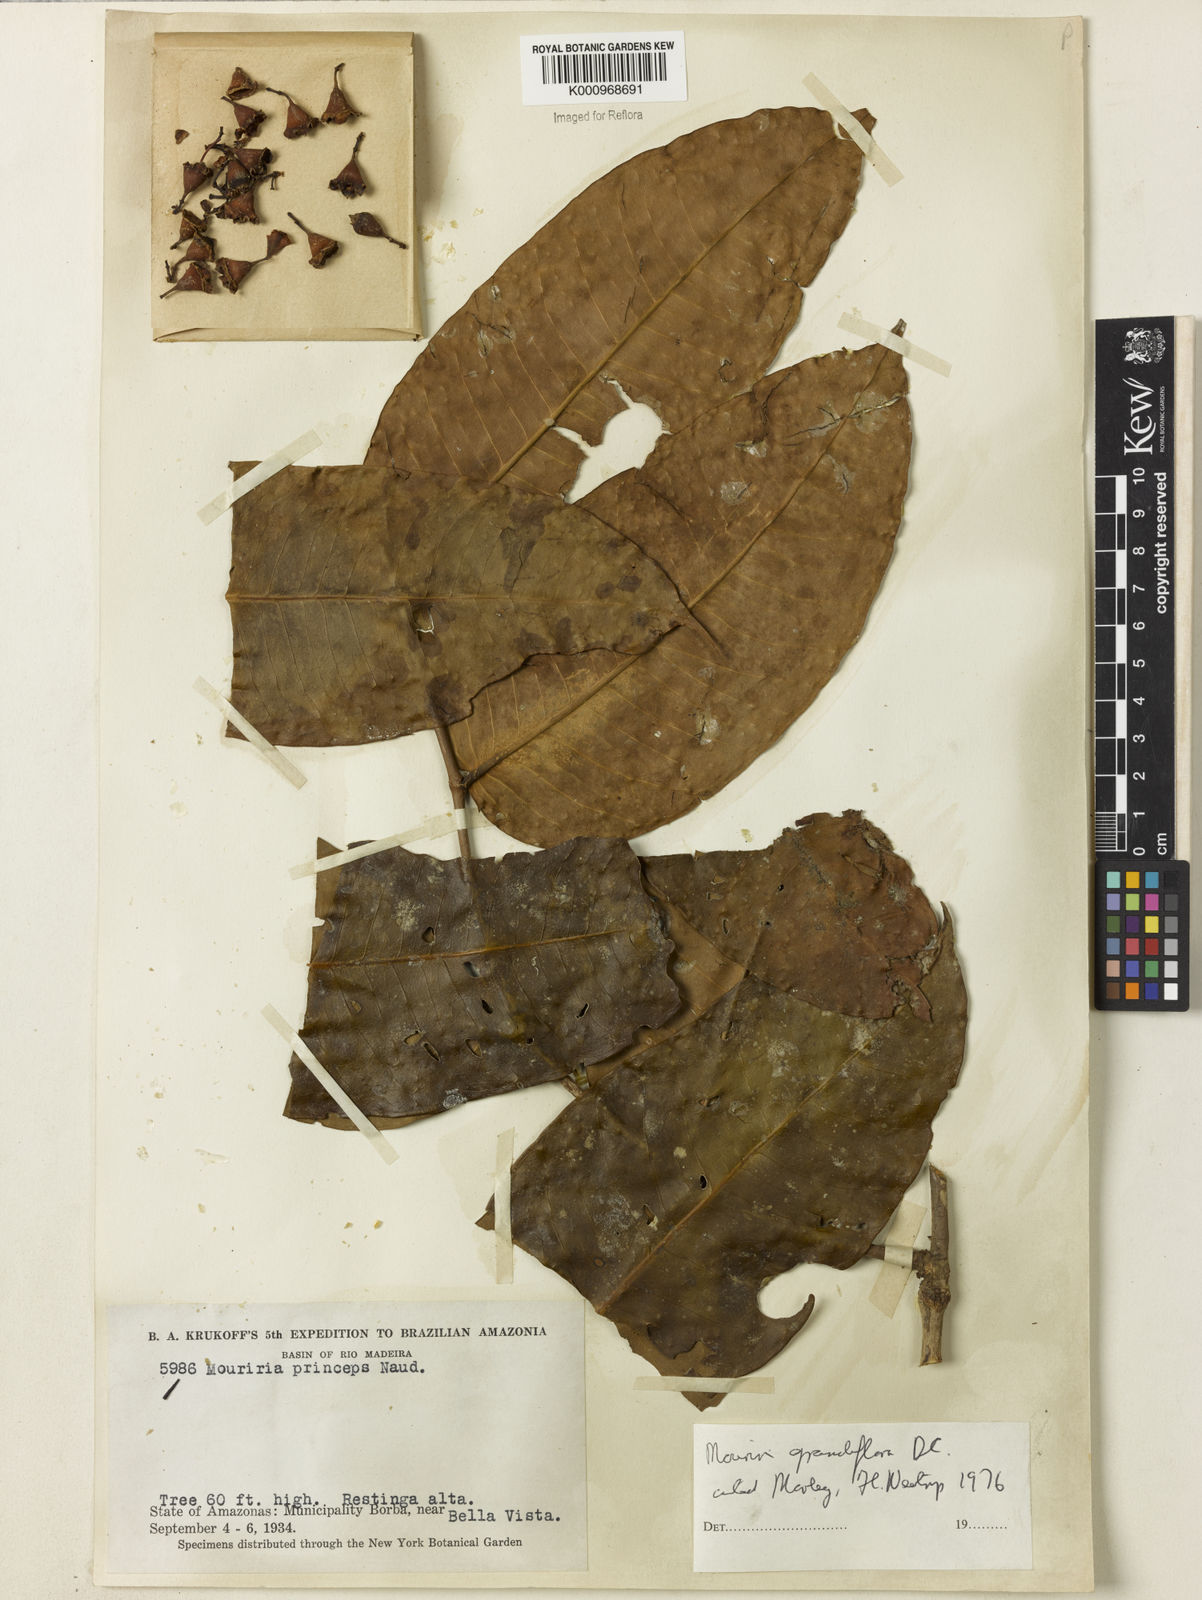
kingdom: Plantae
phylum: Tracheophyta
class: Magnoliopsida
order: Myrtales
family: Melastomataceae
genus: Mouriri
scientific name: Mouriri grandiflora
